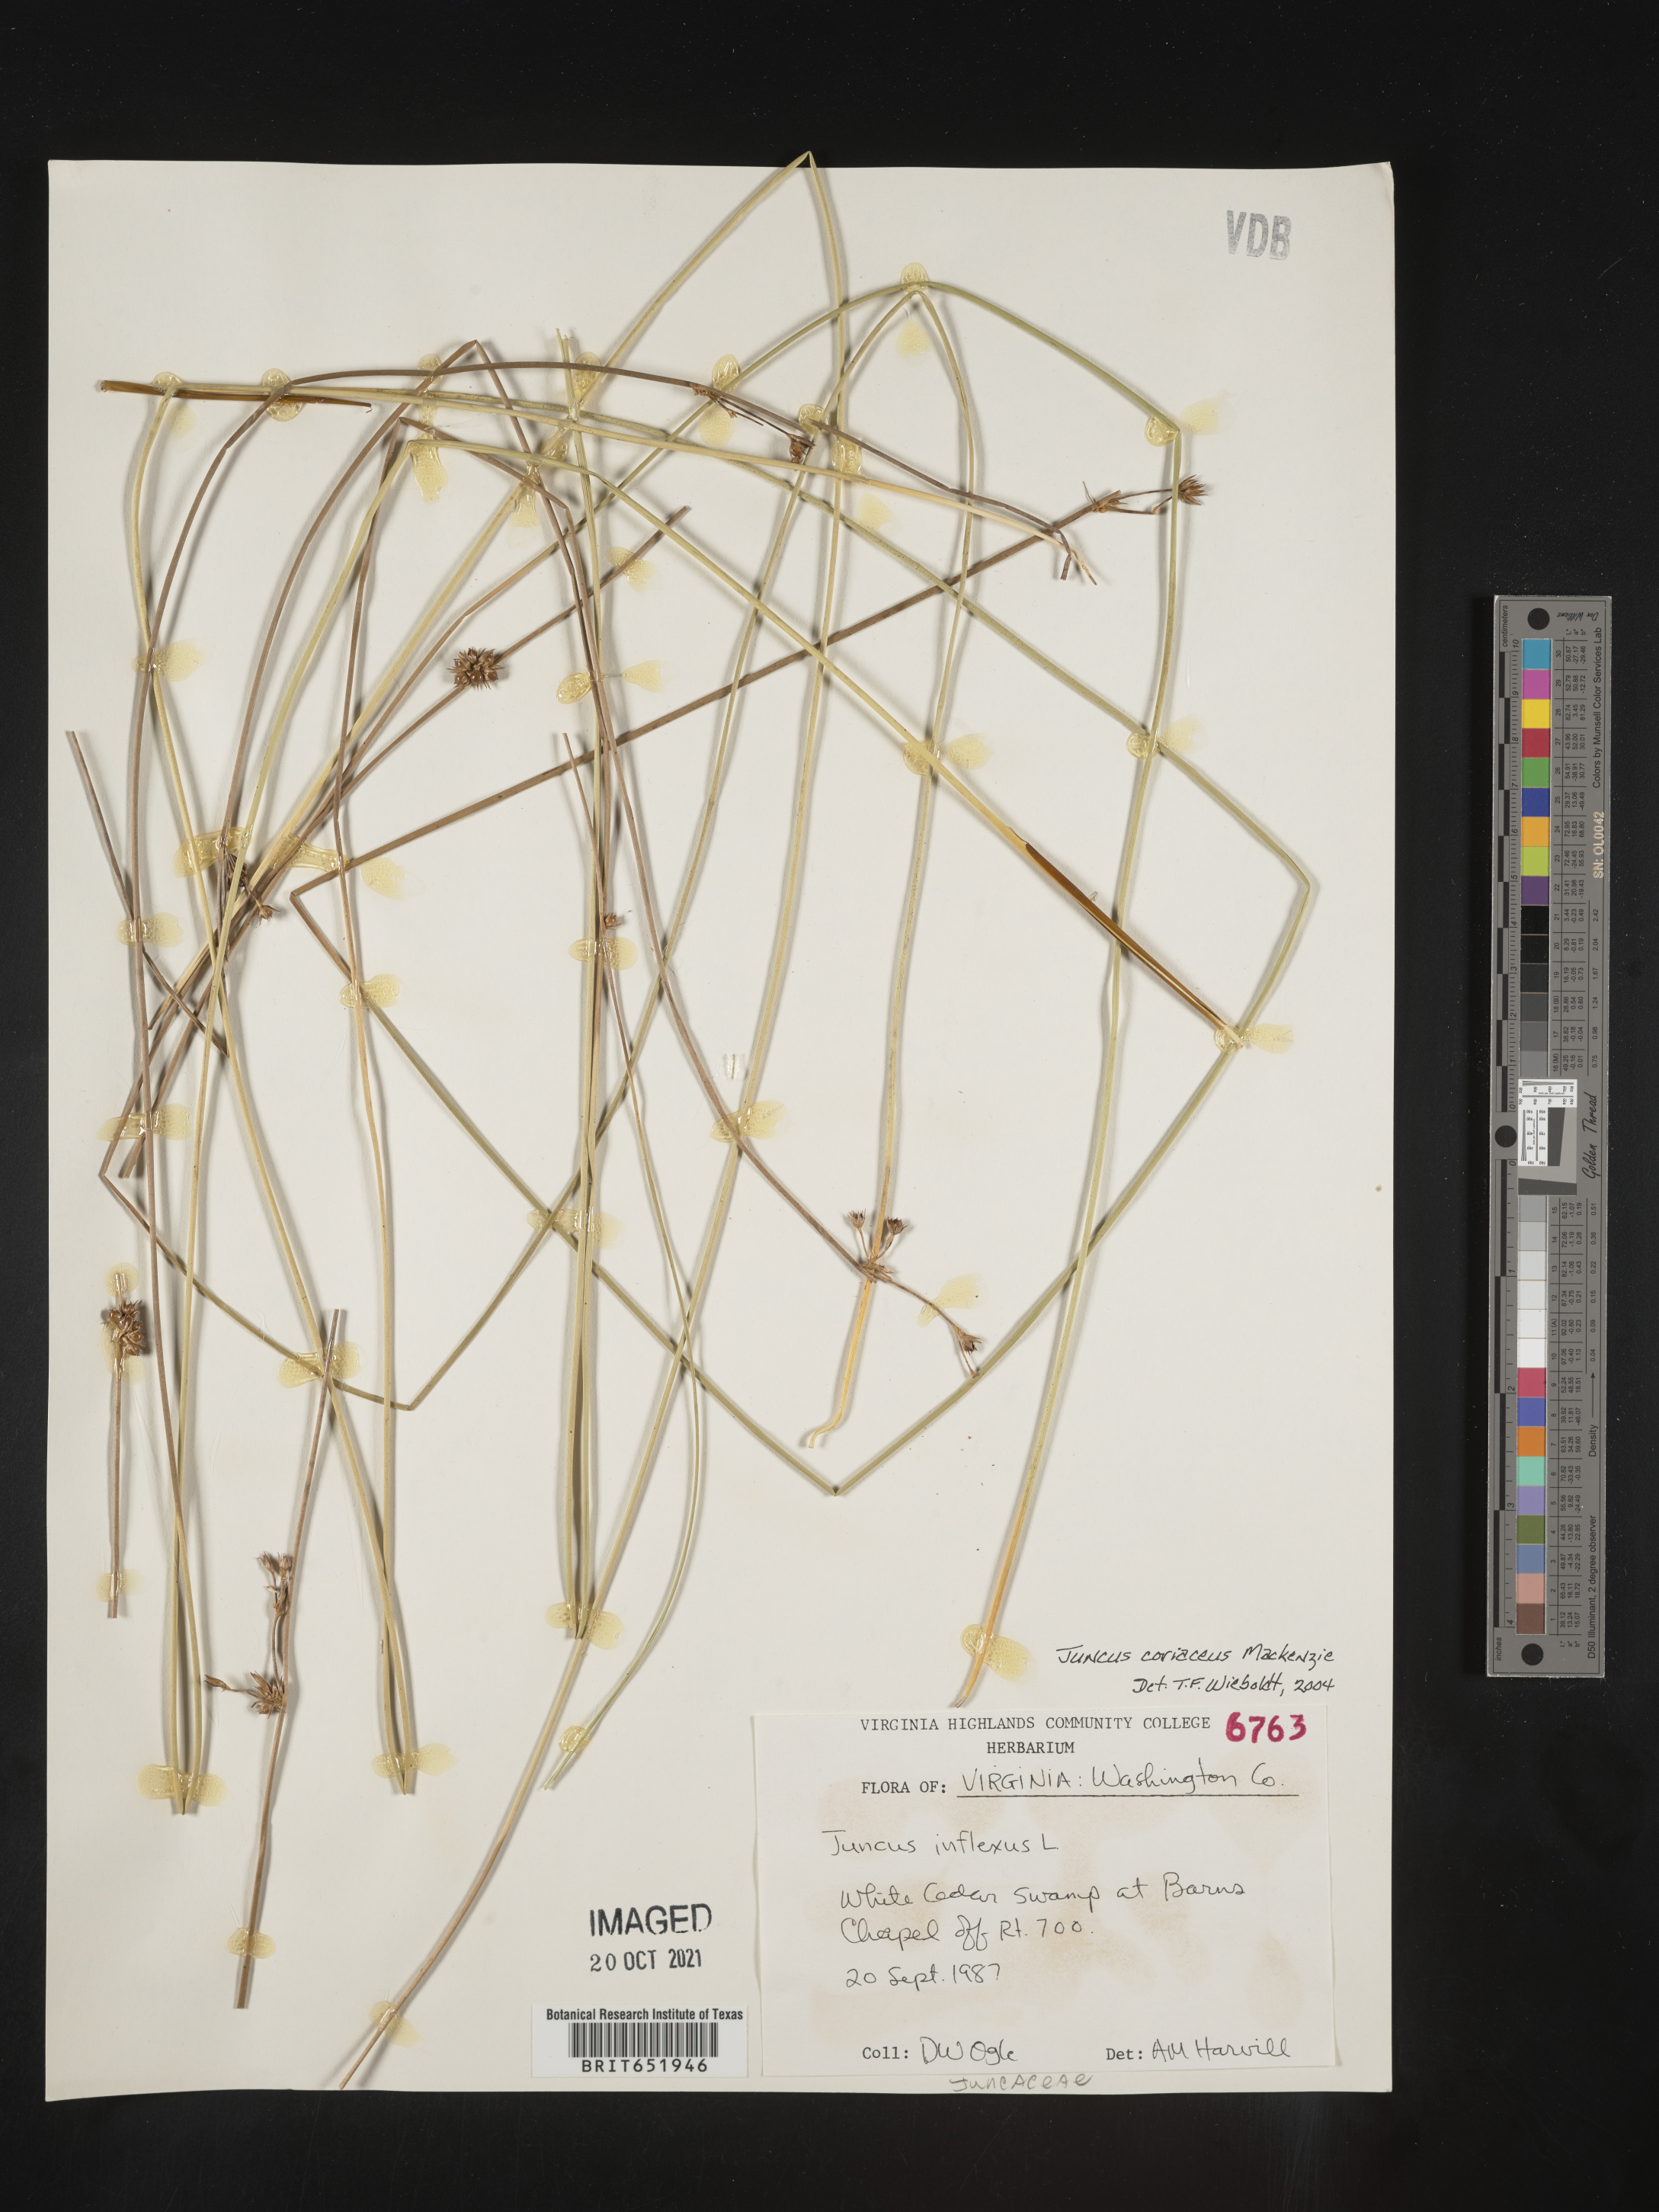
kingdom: Plantae
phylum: Tracheophyta
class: Liliopsida
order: Poales
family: Juncaceae
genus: Juncus
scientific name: Juncus coriaceus
